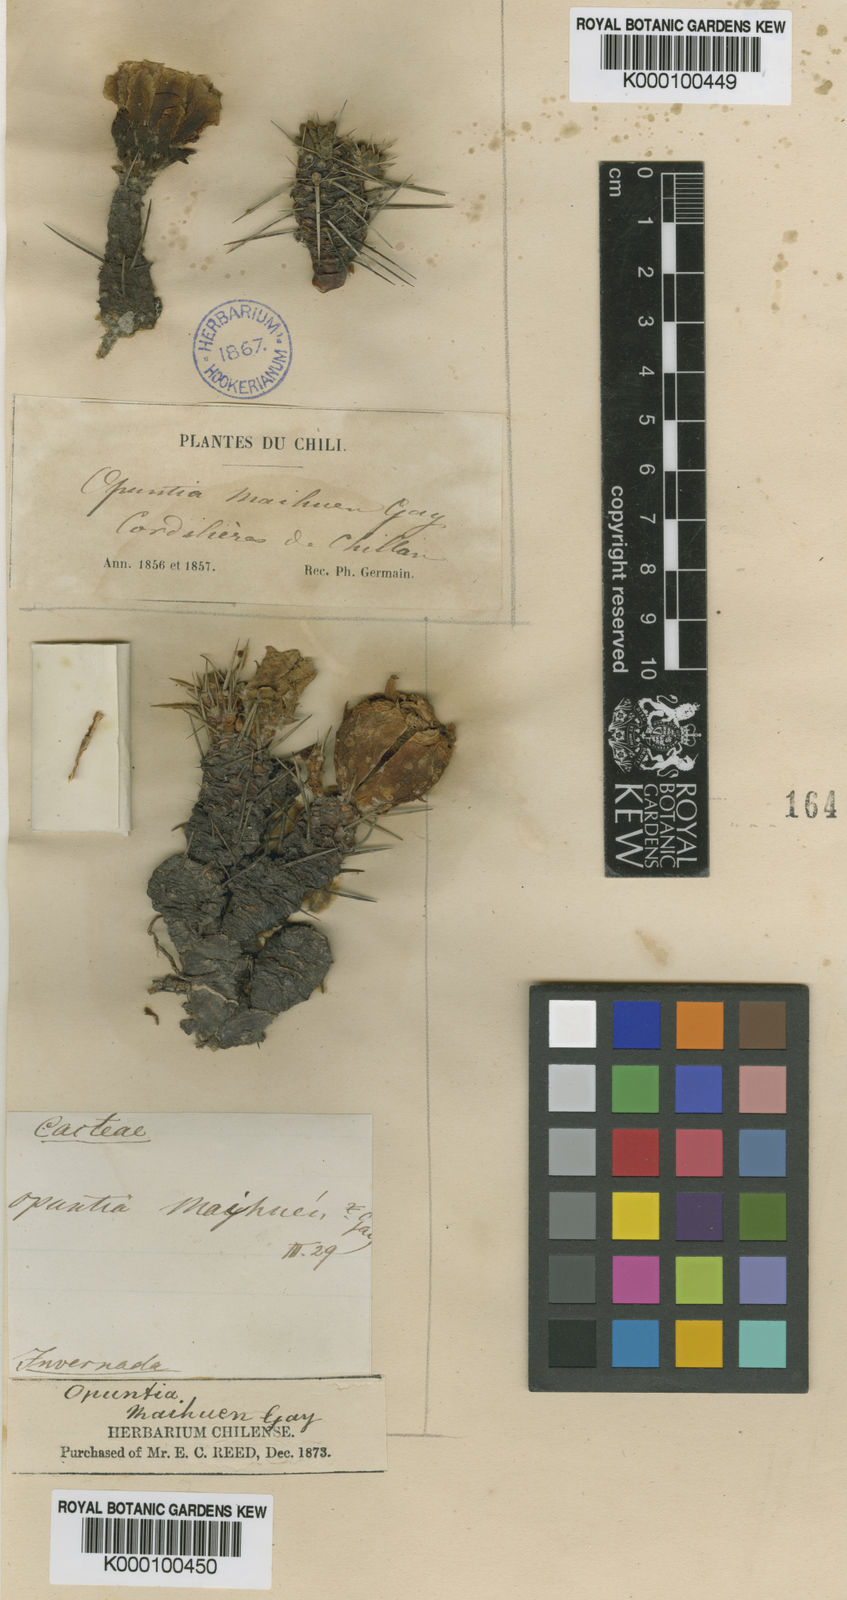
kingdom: Plantae
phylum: Tracheophyta
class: Magnoliopsida
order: Caryophyllales
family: Cactaceae
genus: Maihuenia
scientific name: Maihuenia
